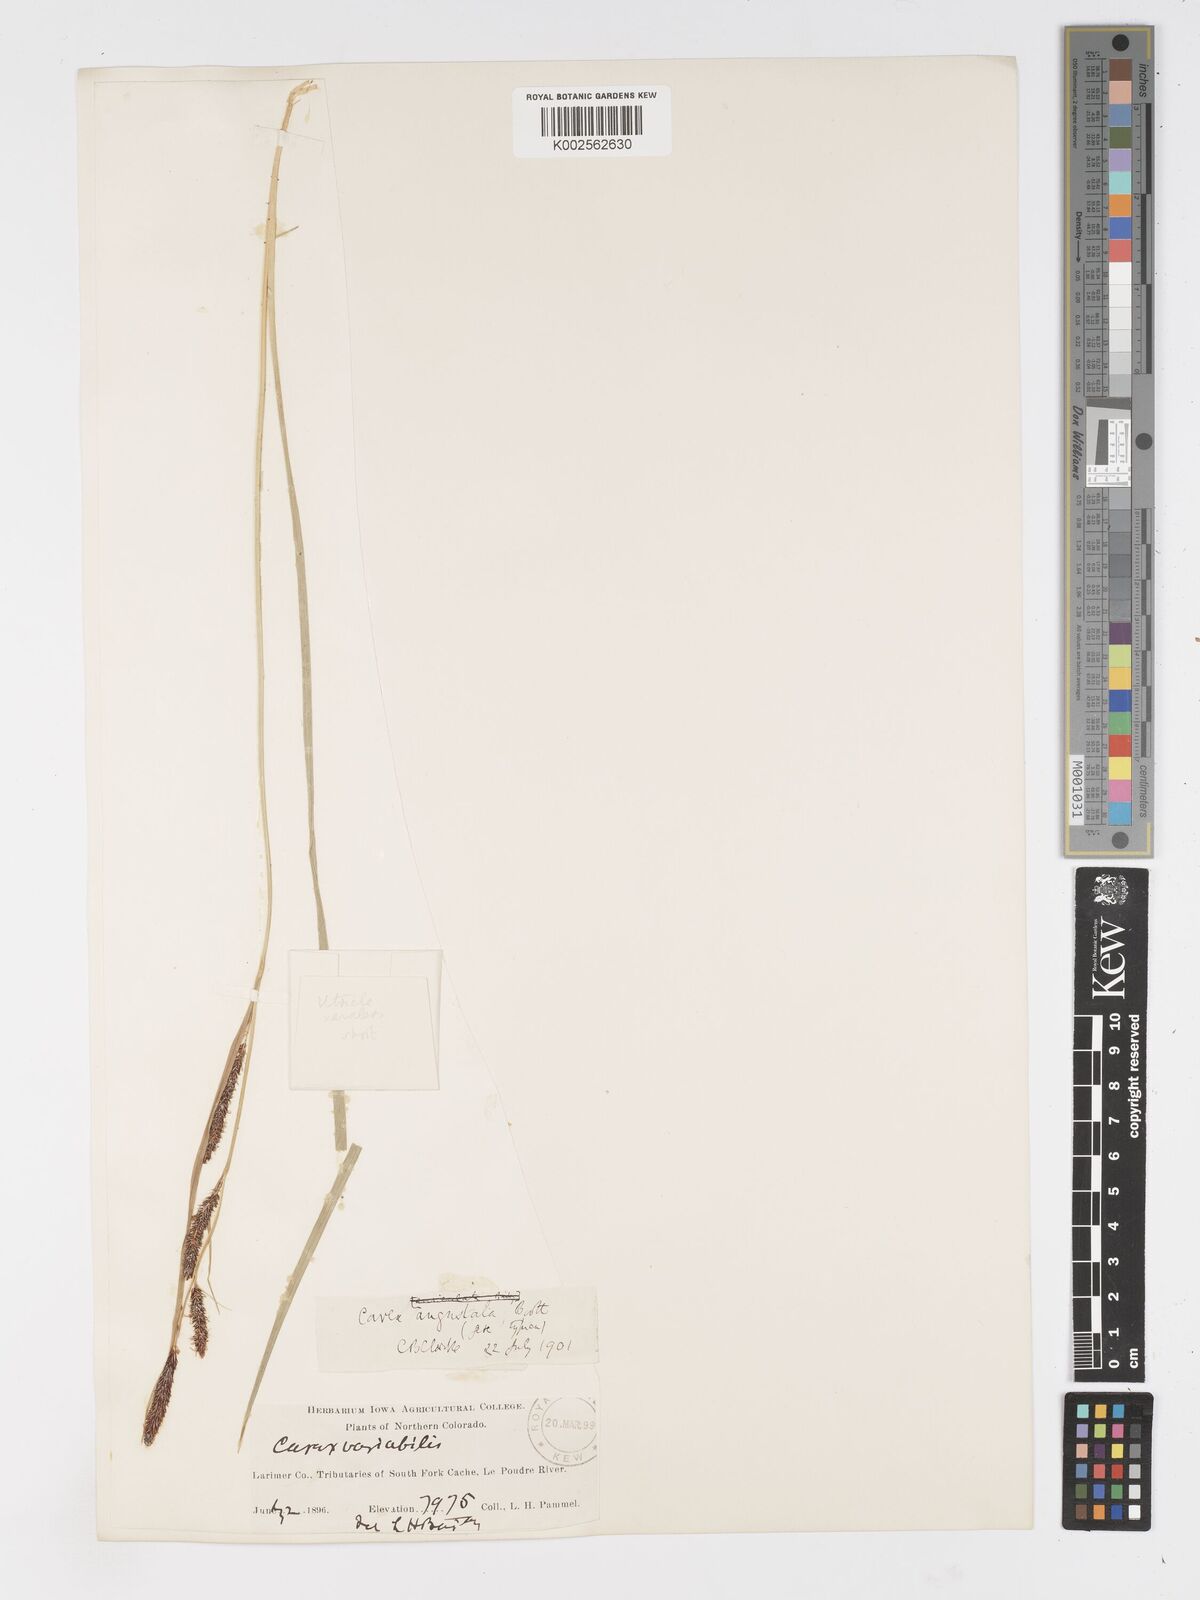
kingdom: Plantae
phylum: Tracheophyta
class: Liliopsida
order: Poales
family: Cyperaceae
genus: Carex
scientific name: Carex stricta
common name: Hummock sedge
